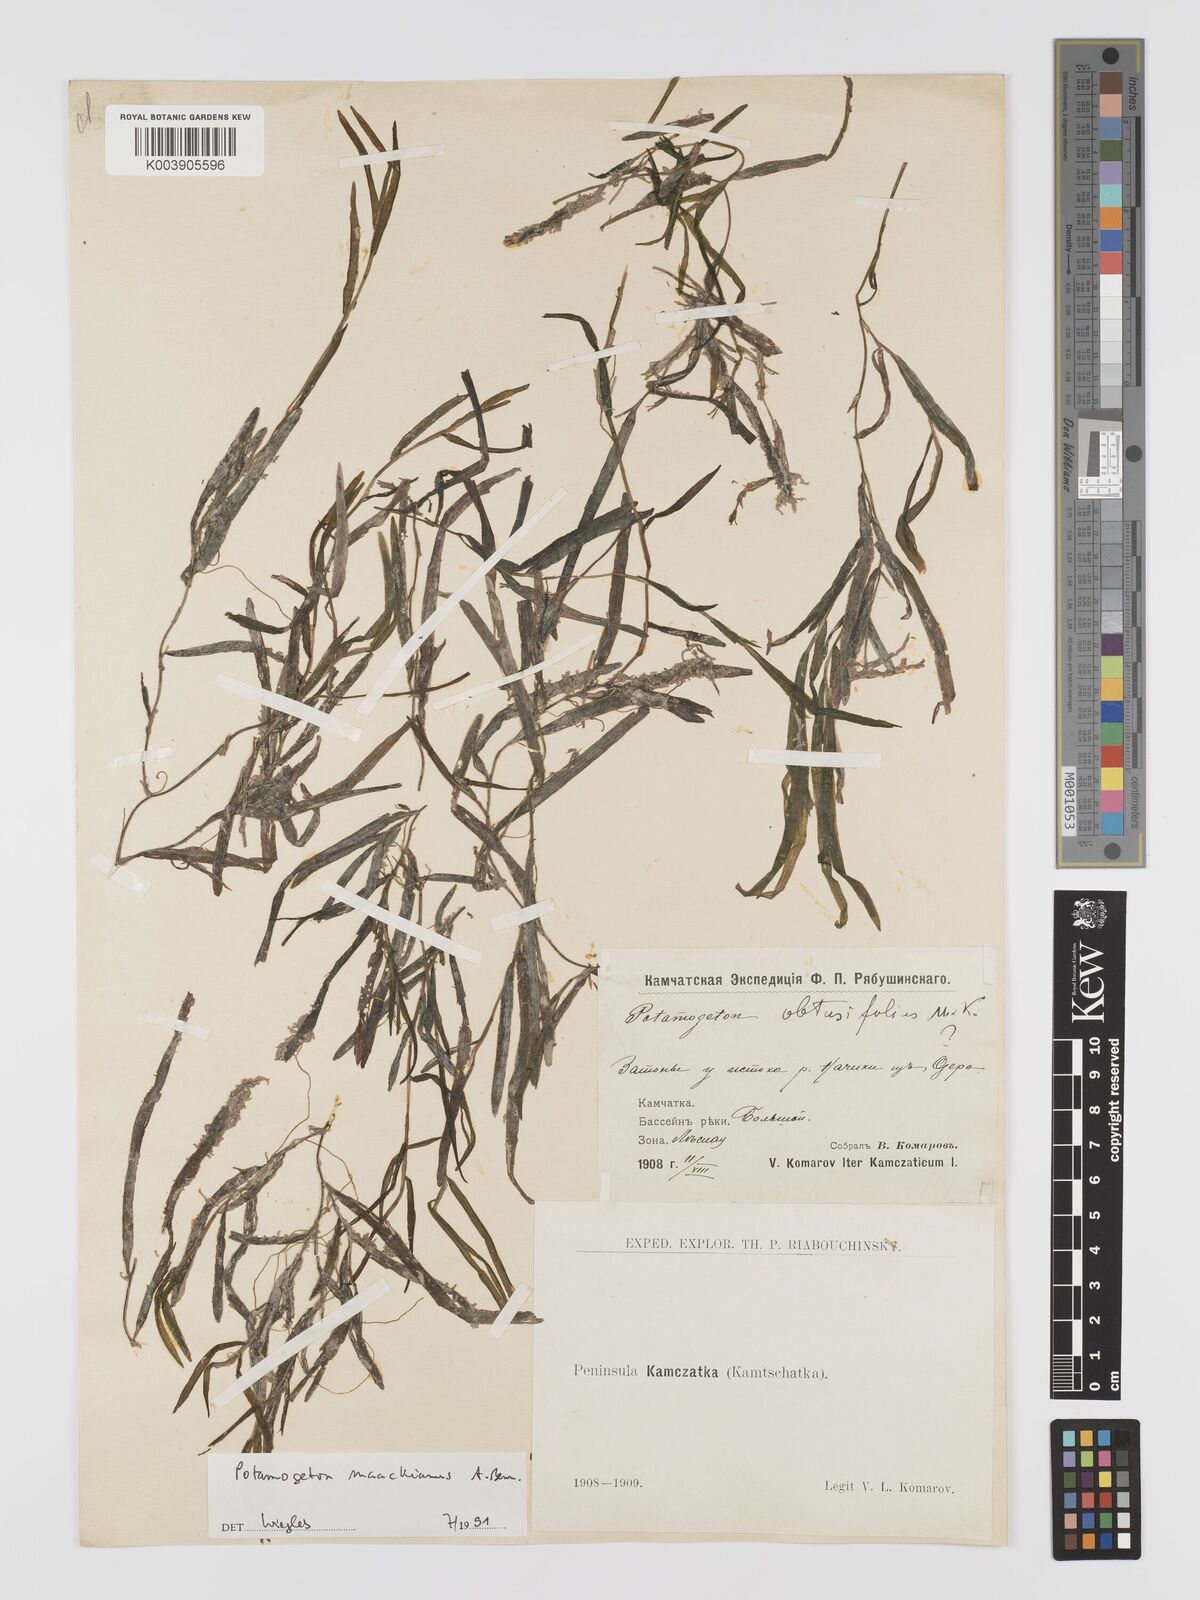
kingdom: Plantae
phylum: Tracheophyta
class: Liliopsida
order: Alismatales
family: Potamogetonaceae
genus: Potamogeton
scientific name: Potamogeton maackianus
